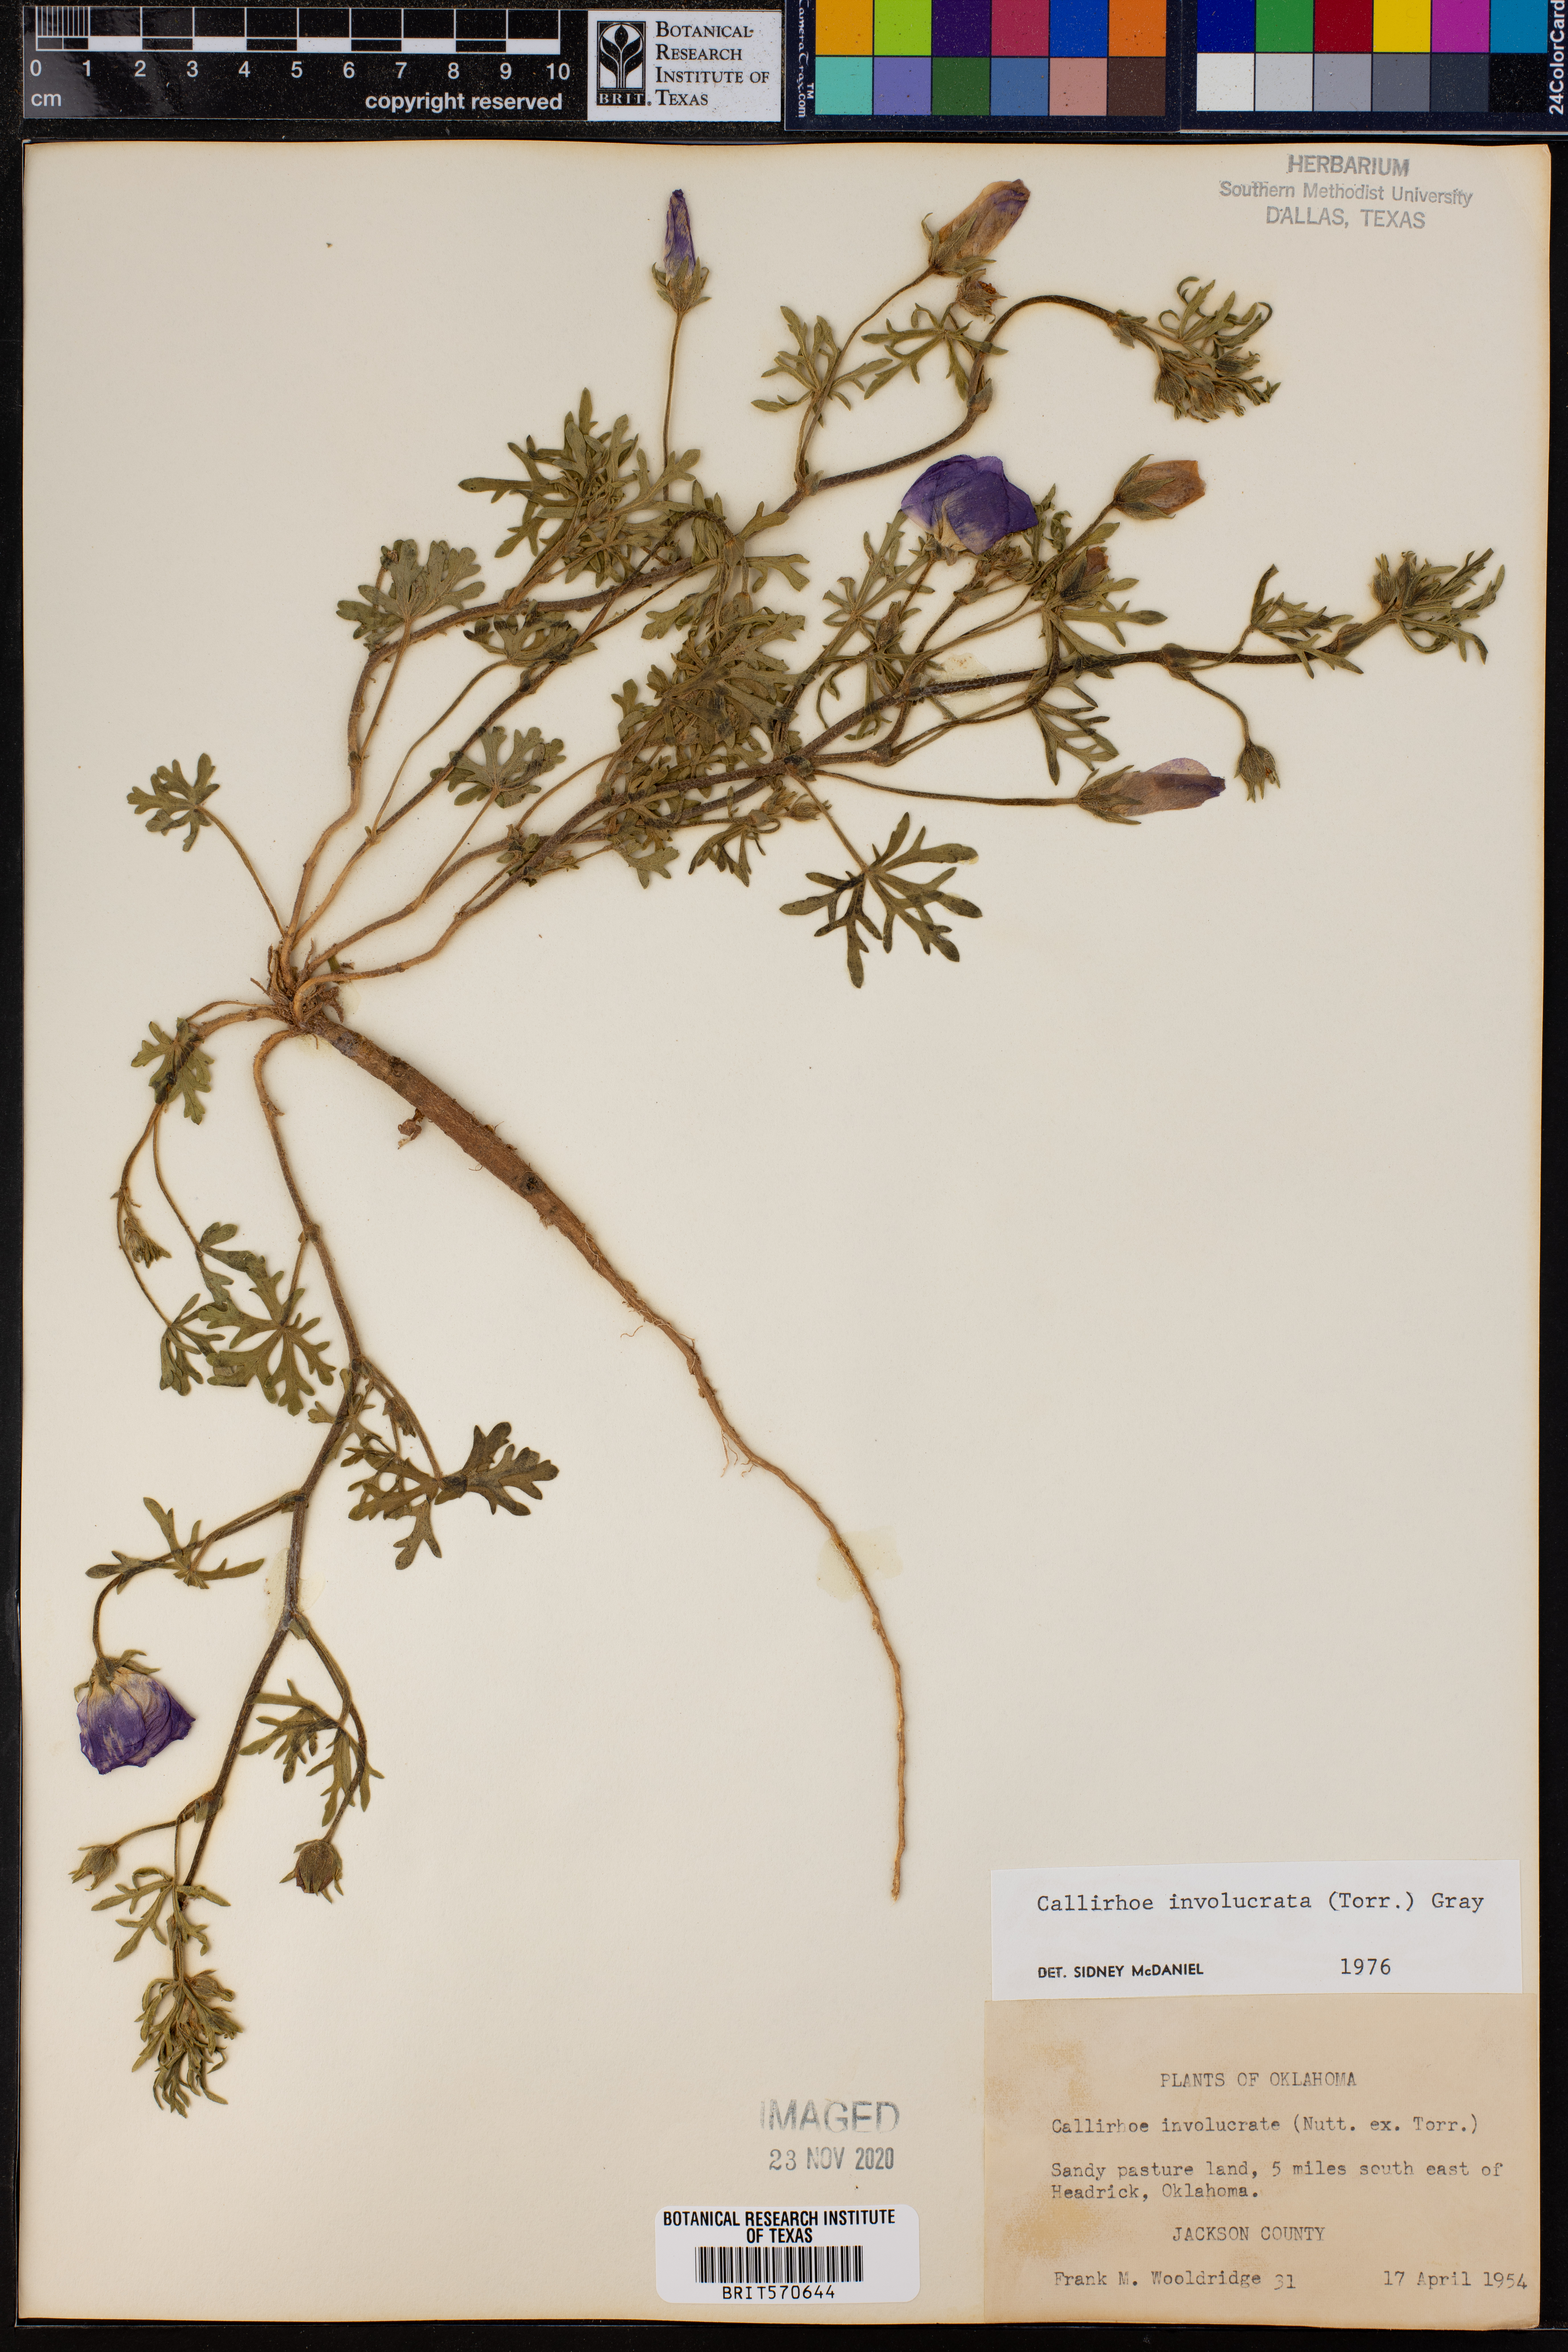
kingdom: Plantae
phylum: Tracheophyta
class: Magnoliopsida
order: Malvales
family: Malvaceae
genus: Callirhoe
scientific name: Callirhoe involucrata
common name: Purple poppy-mallow
